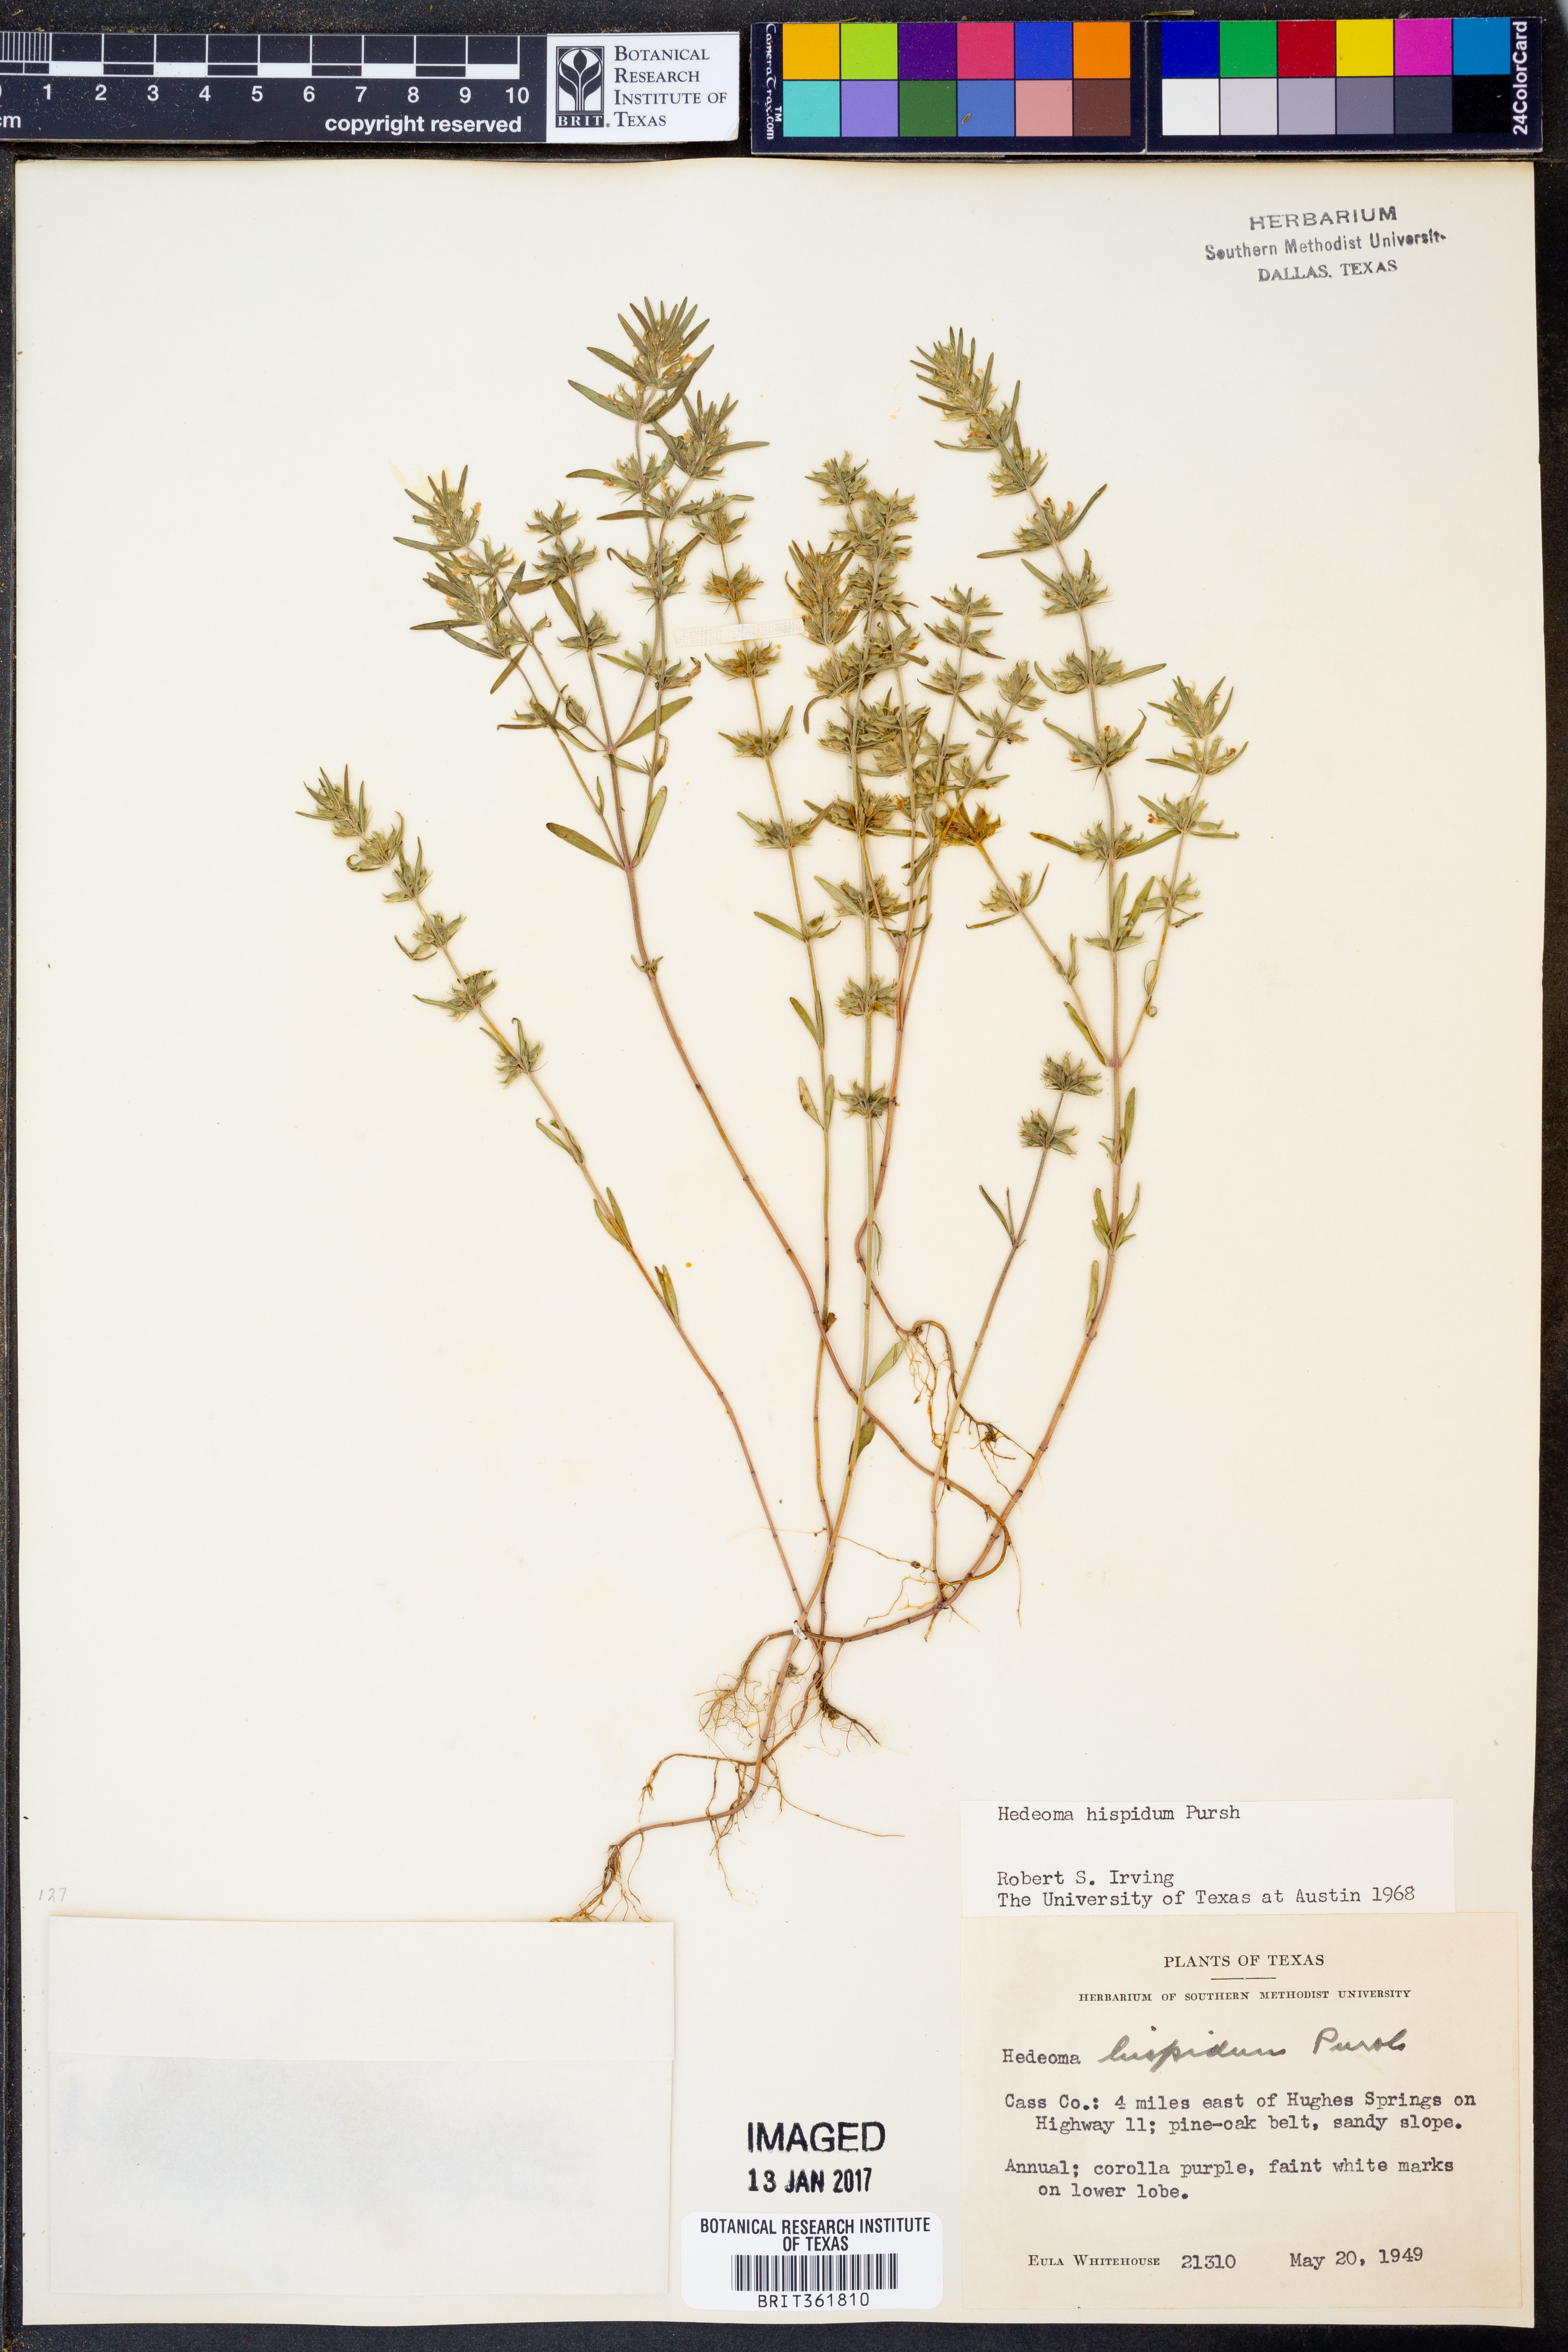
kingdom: Plantae
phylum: Tracheophyta
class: Magnoliopsida
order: Lamiales
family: Lamiaceae
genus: Hedeoma
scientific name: Hedeoma hispida
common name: Mock pennyroyal
